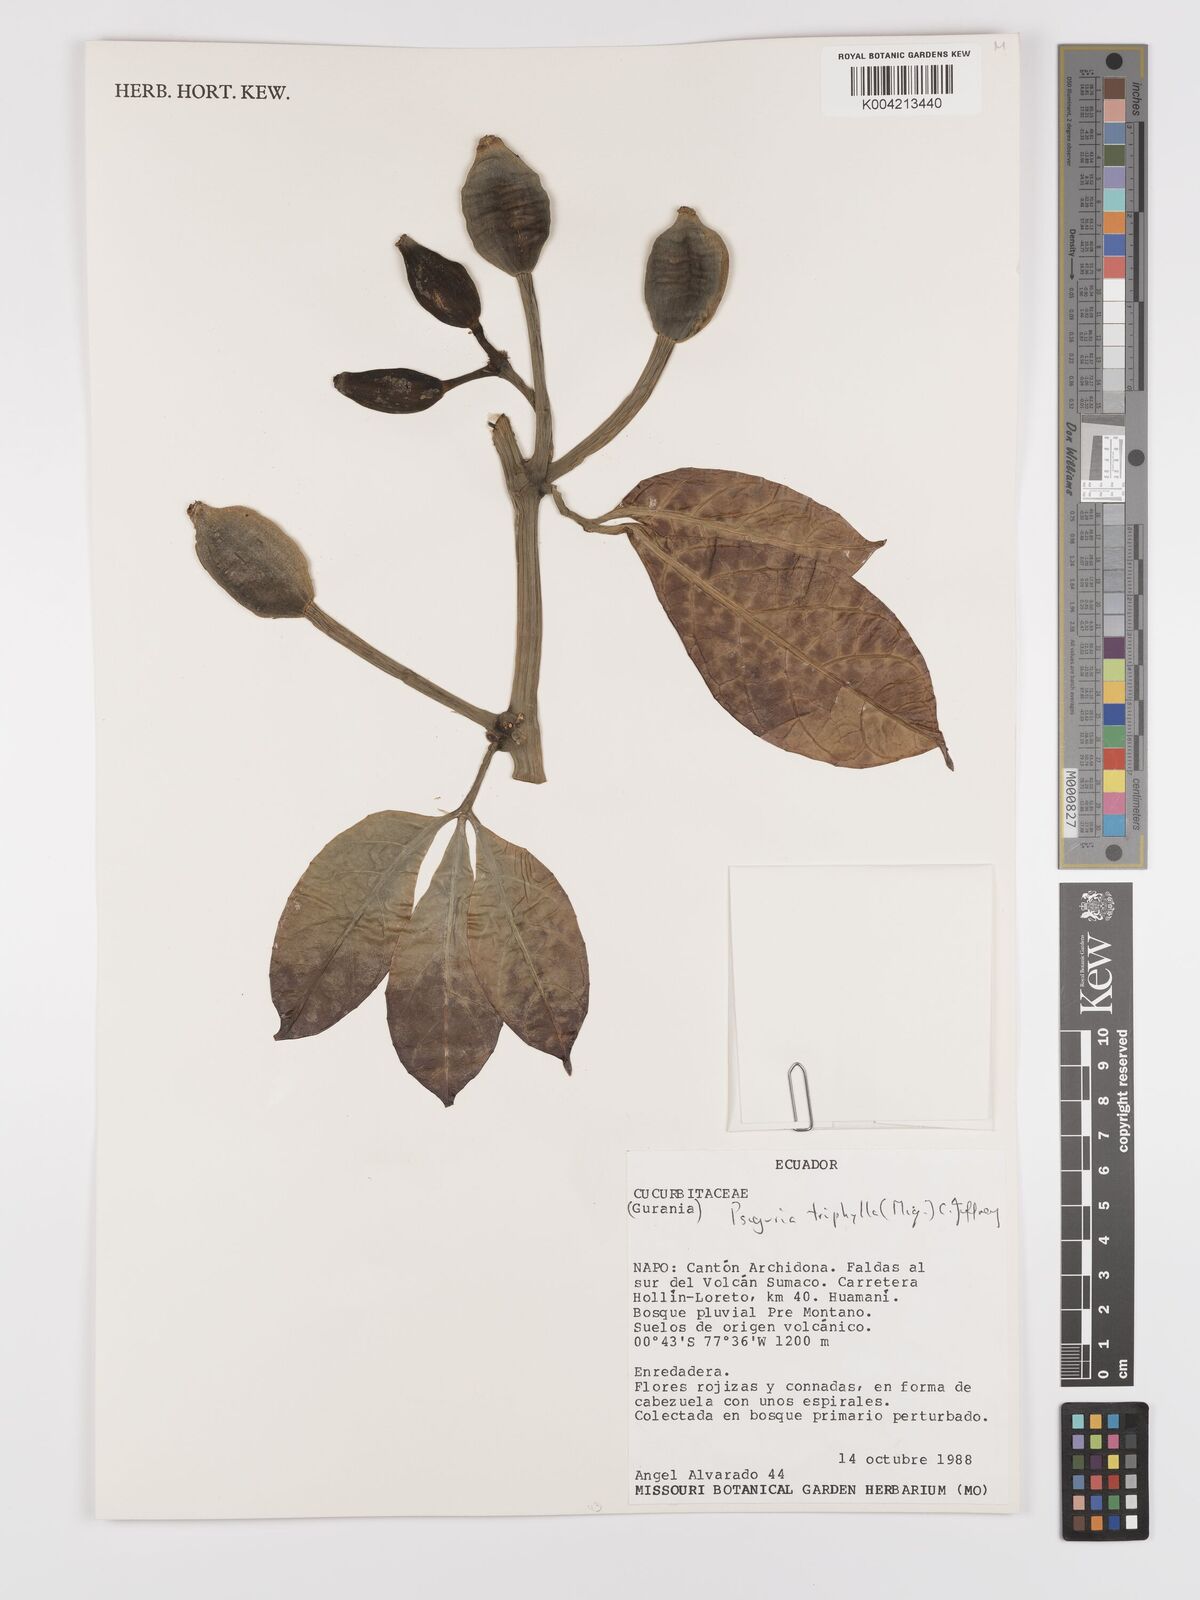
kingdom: Plantae
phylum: Tracheophyta
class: Magnoliopsida
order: Cucurbitales
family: Cucurbitaceae
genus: Psiguria
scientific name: Psiguria triphylla
